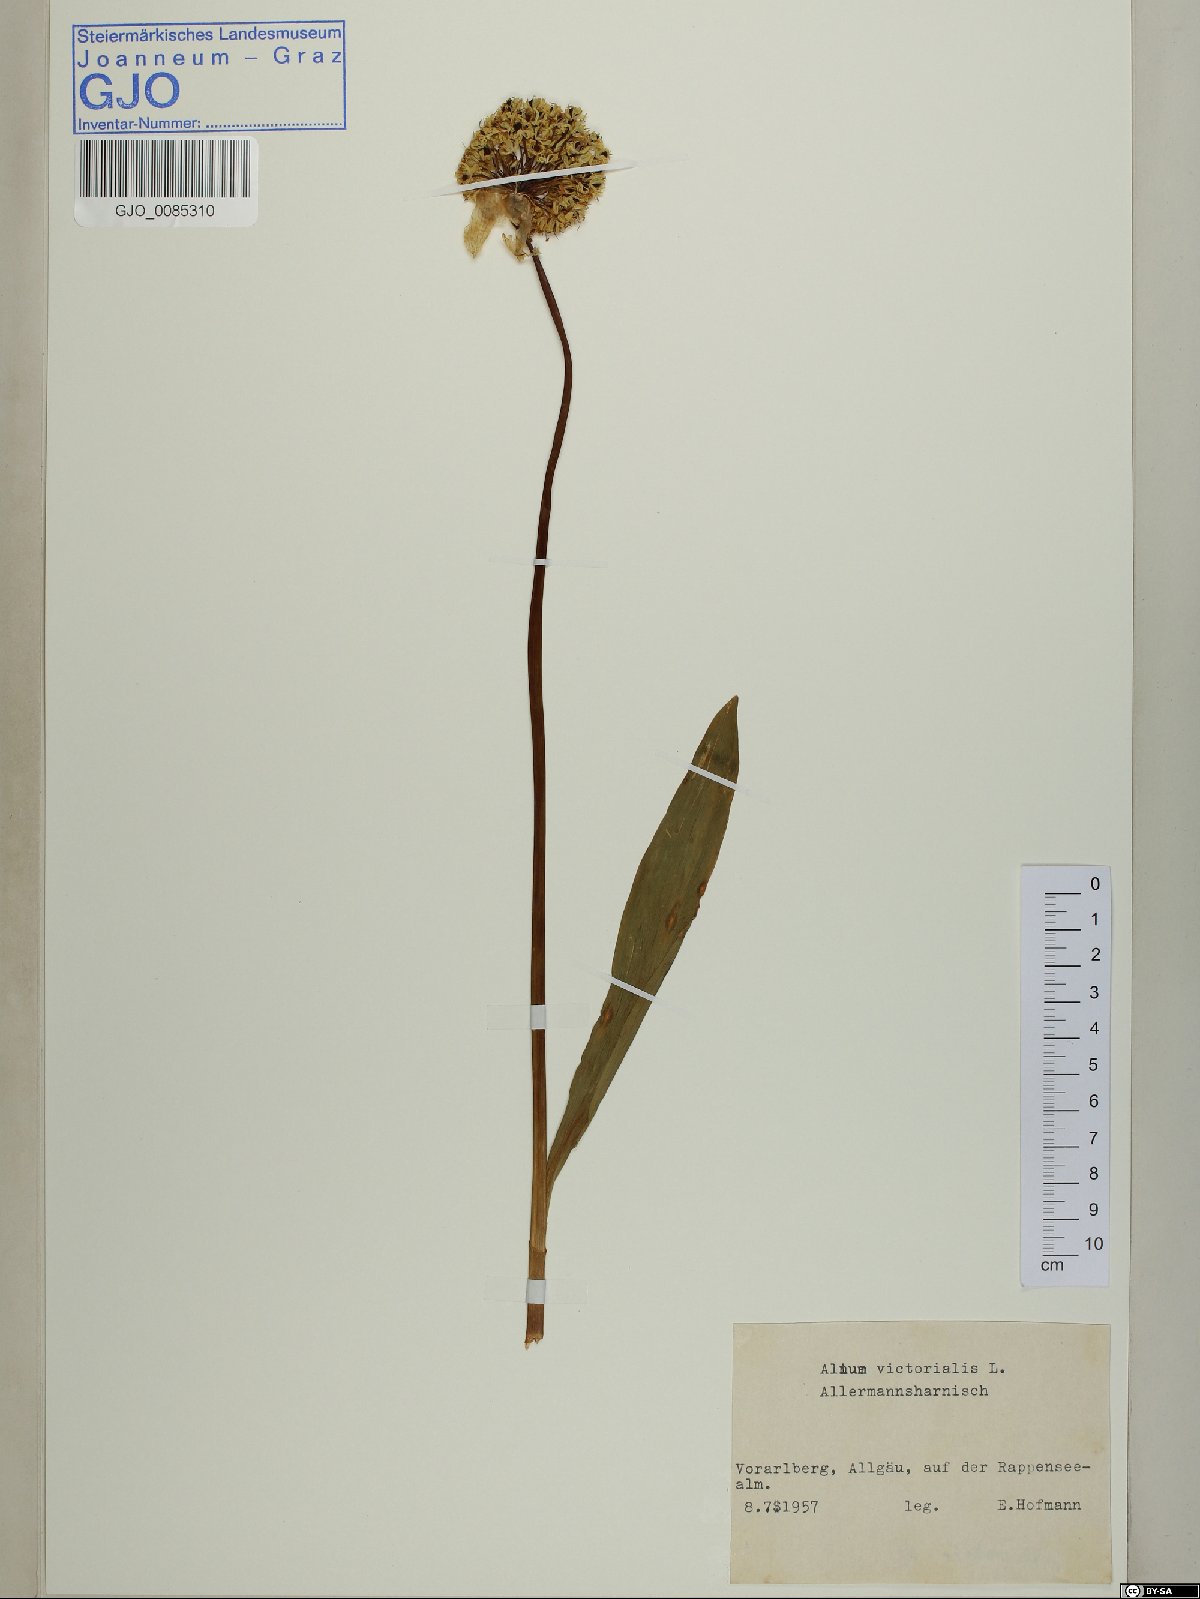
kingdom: Plantae
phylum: Tracheophyta
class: Liliopsida
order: Asparagales
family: Amaryllidaceae
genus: Allium
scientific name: Allium victorialis
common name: Alpine leek
